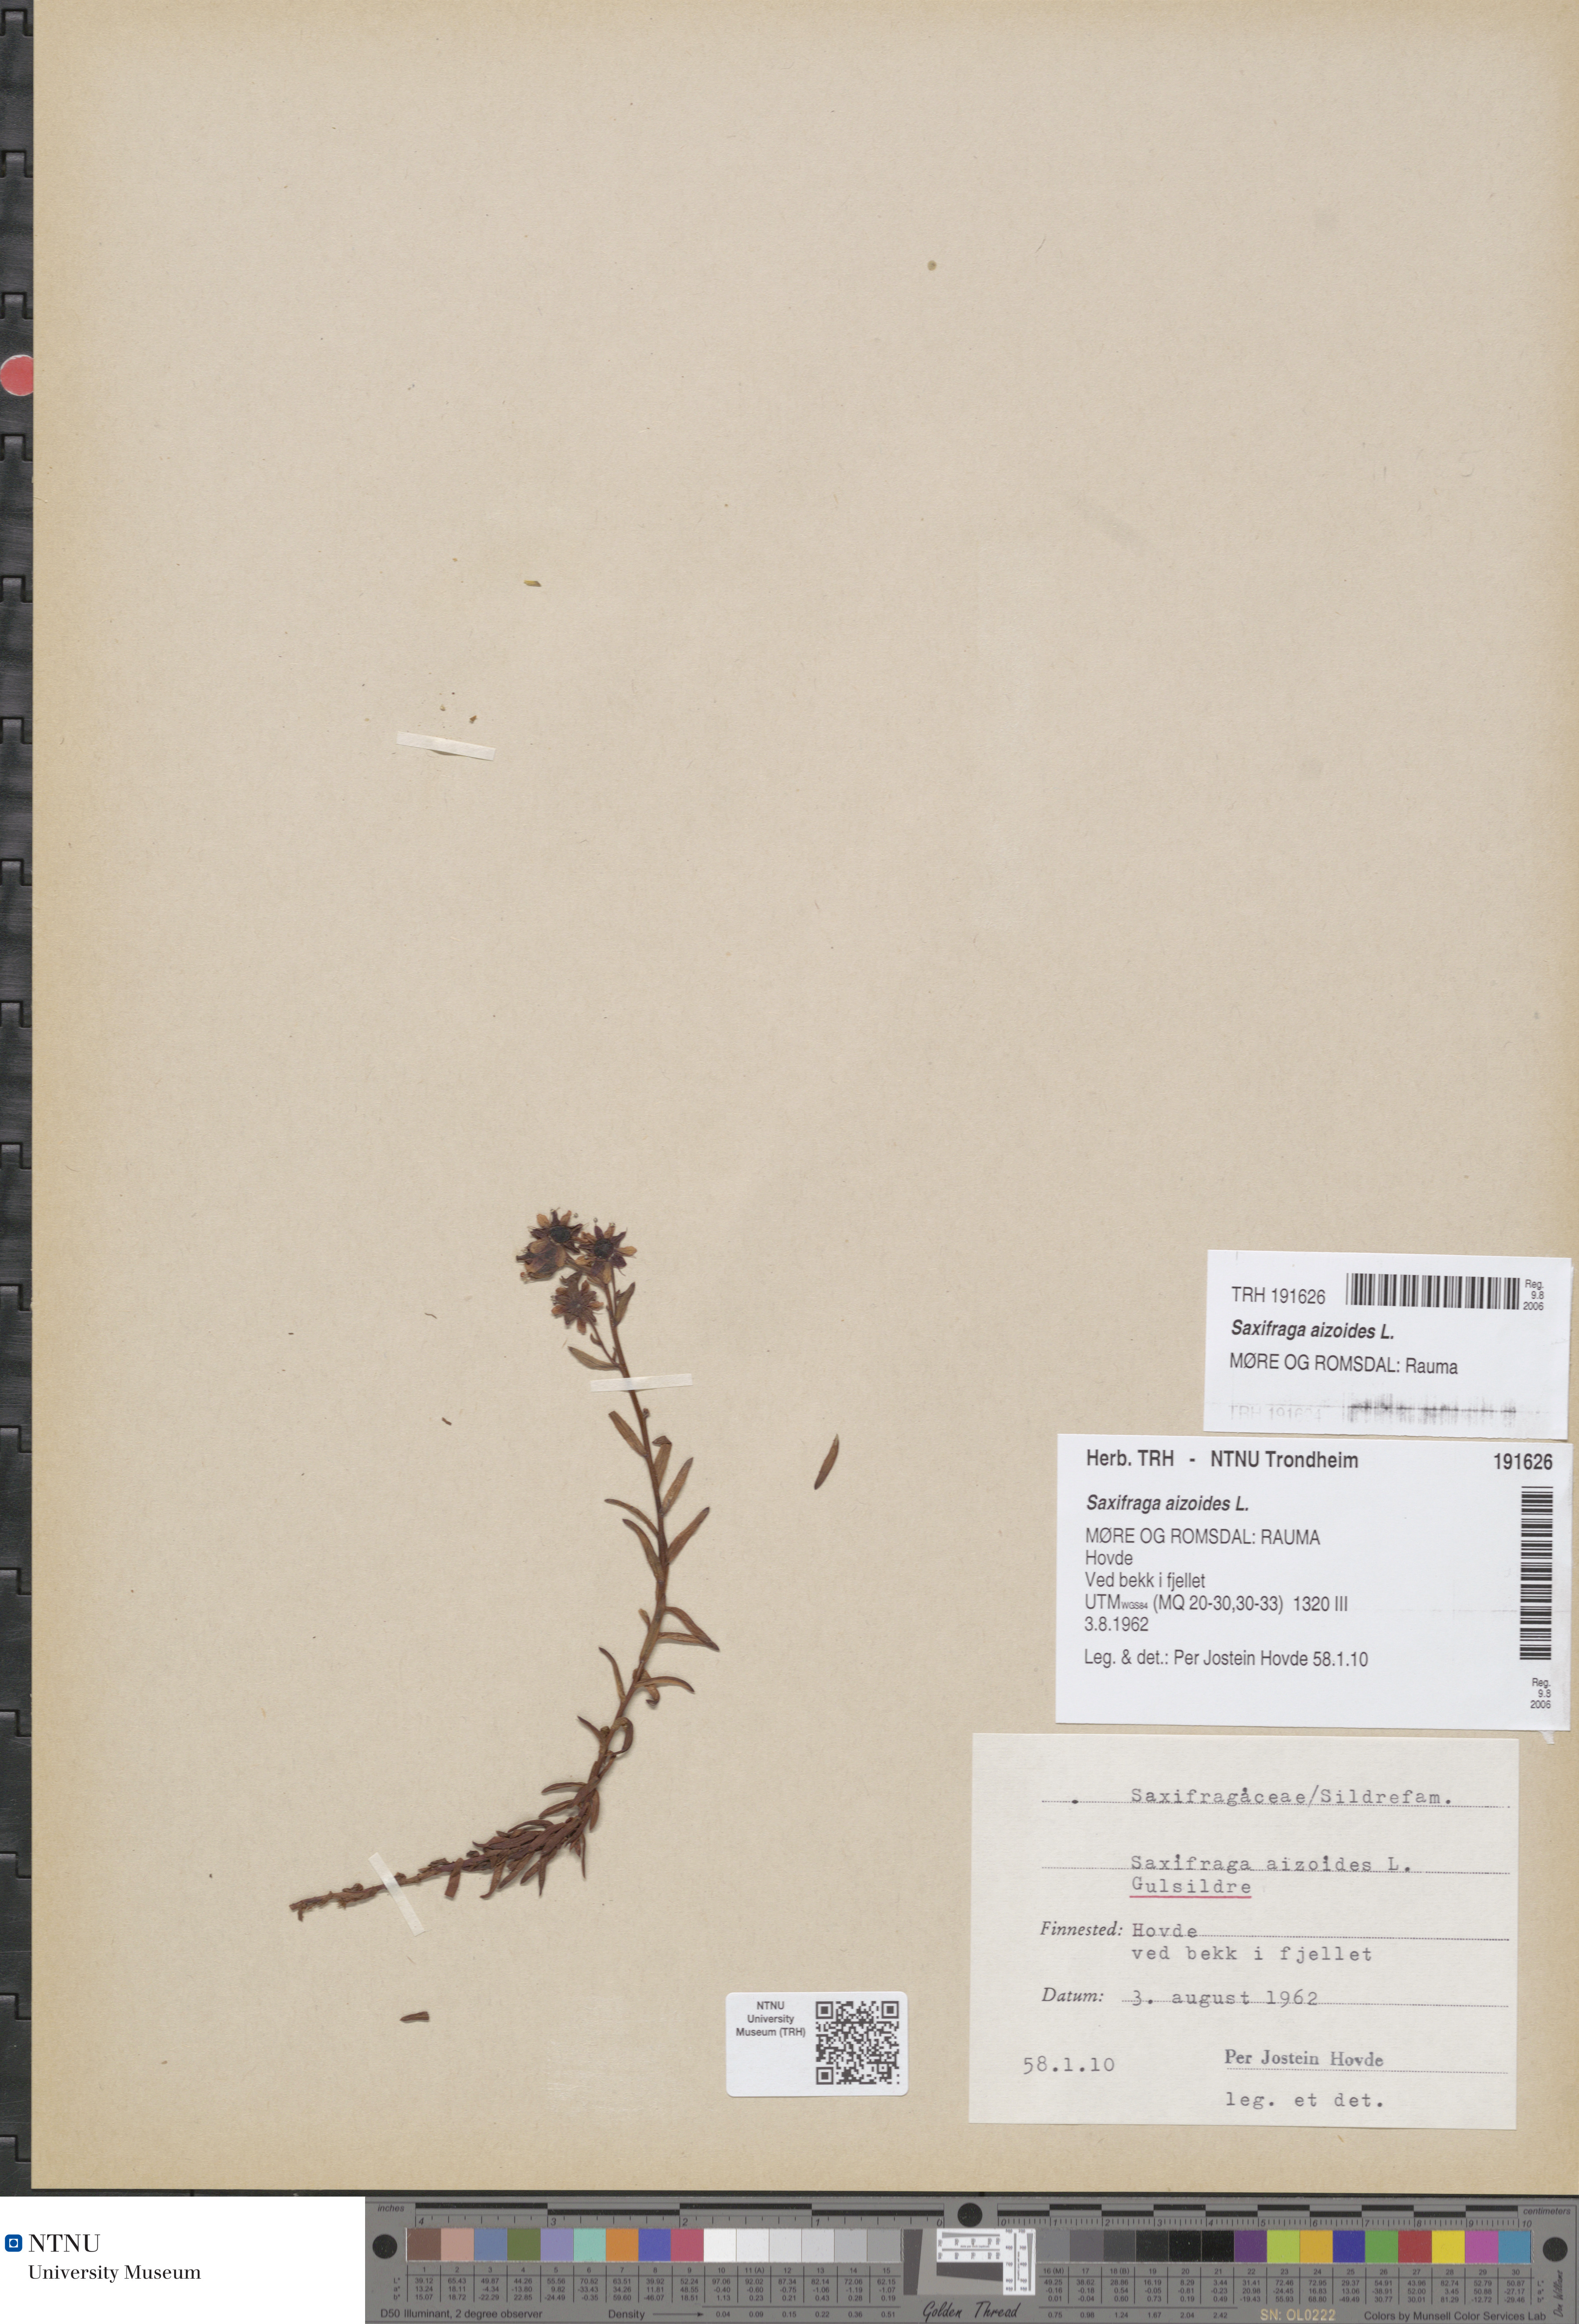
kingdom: Plantae
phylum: Tracheophyta
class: Magnoliopsida
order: Saxifragales
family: Saxifragaceae
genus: Saxifraga
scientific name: Saxifraga aizoides
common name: Yellow mountain saxifrage
